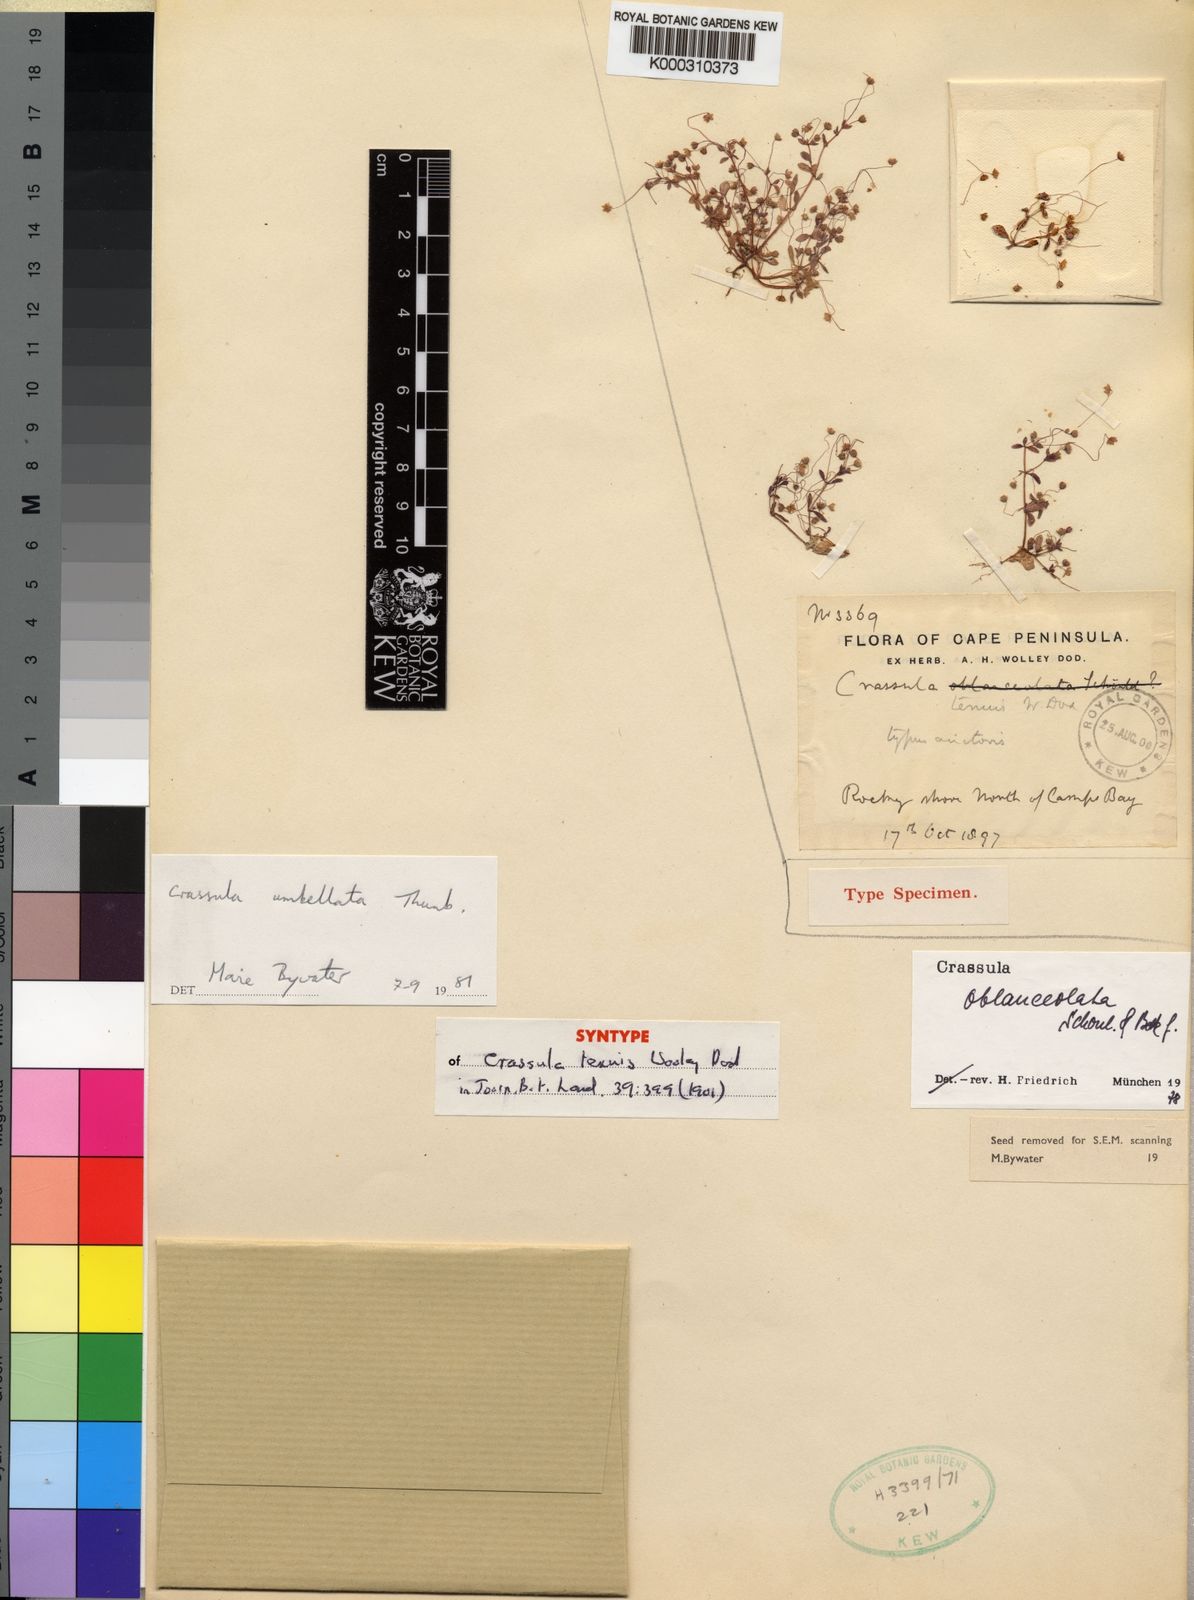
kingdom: Plantae
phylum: Tracheophyta
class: Magnoliopsida
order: Saxifragales
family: Crassulaceae
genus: Crassula
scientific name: Crassula umbellata
